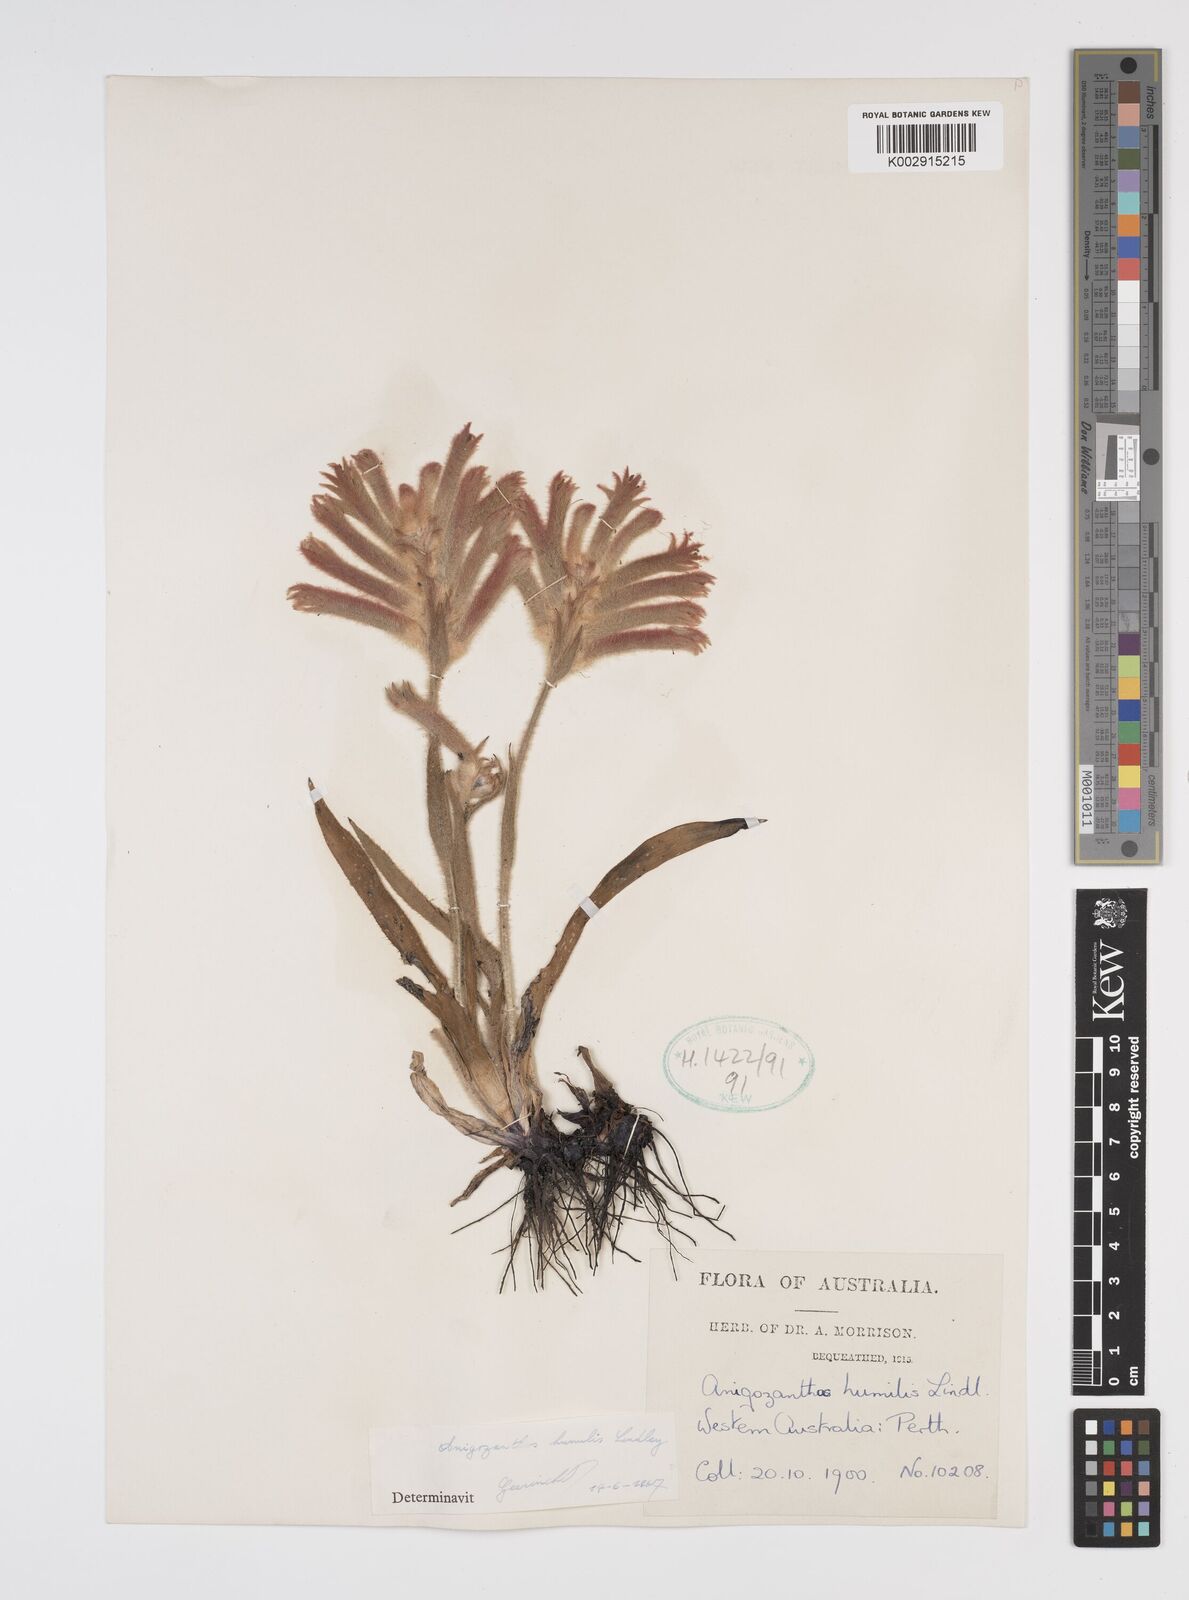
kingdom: Plantae
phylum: Tracheophyta
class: Liliopsida
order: Commelinales
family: Haemodoraceae
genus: Anigozanthos
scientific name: Anigozanthos humilis
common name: Cat's-paw
